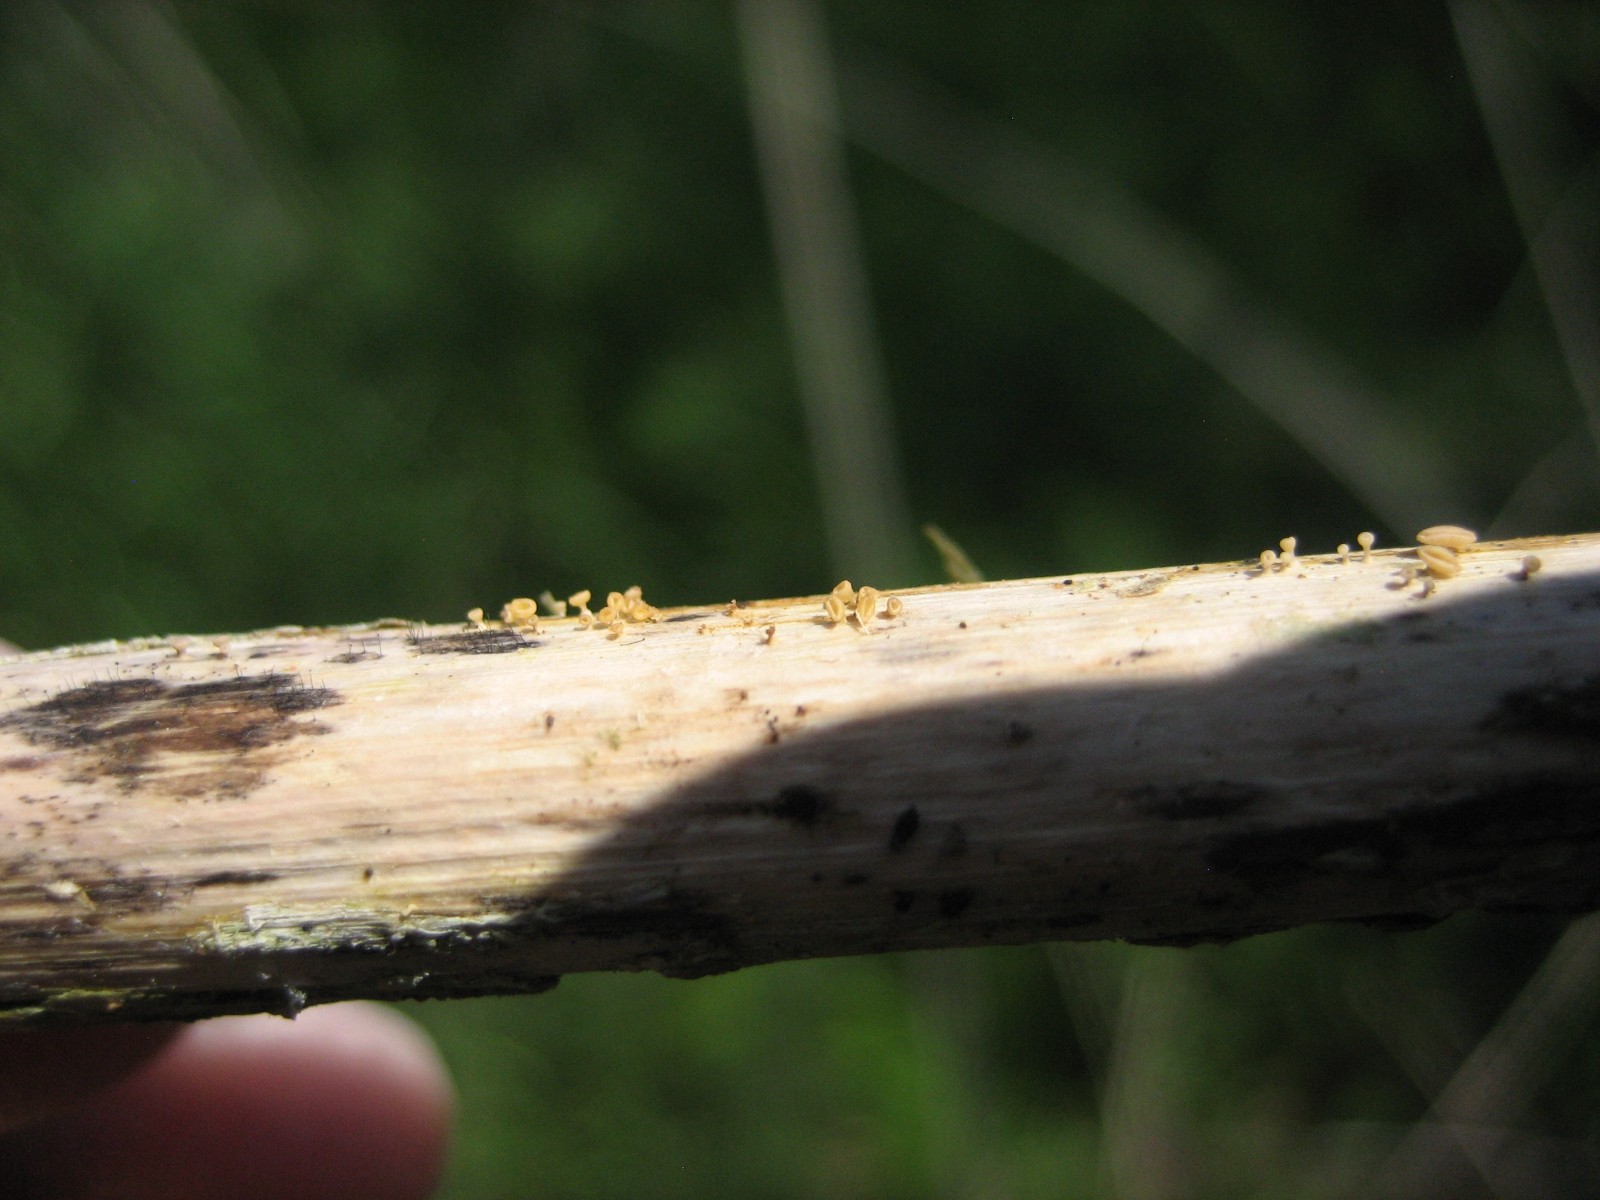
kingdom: Fungi
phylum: Ascomycota
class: Leotiomycetes
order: Helotiales
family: Helotiaceae
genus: Cyathicula
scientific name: Cyathicula cyathoidea
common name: pokal-stilkskive
